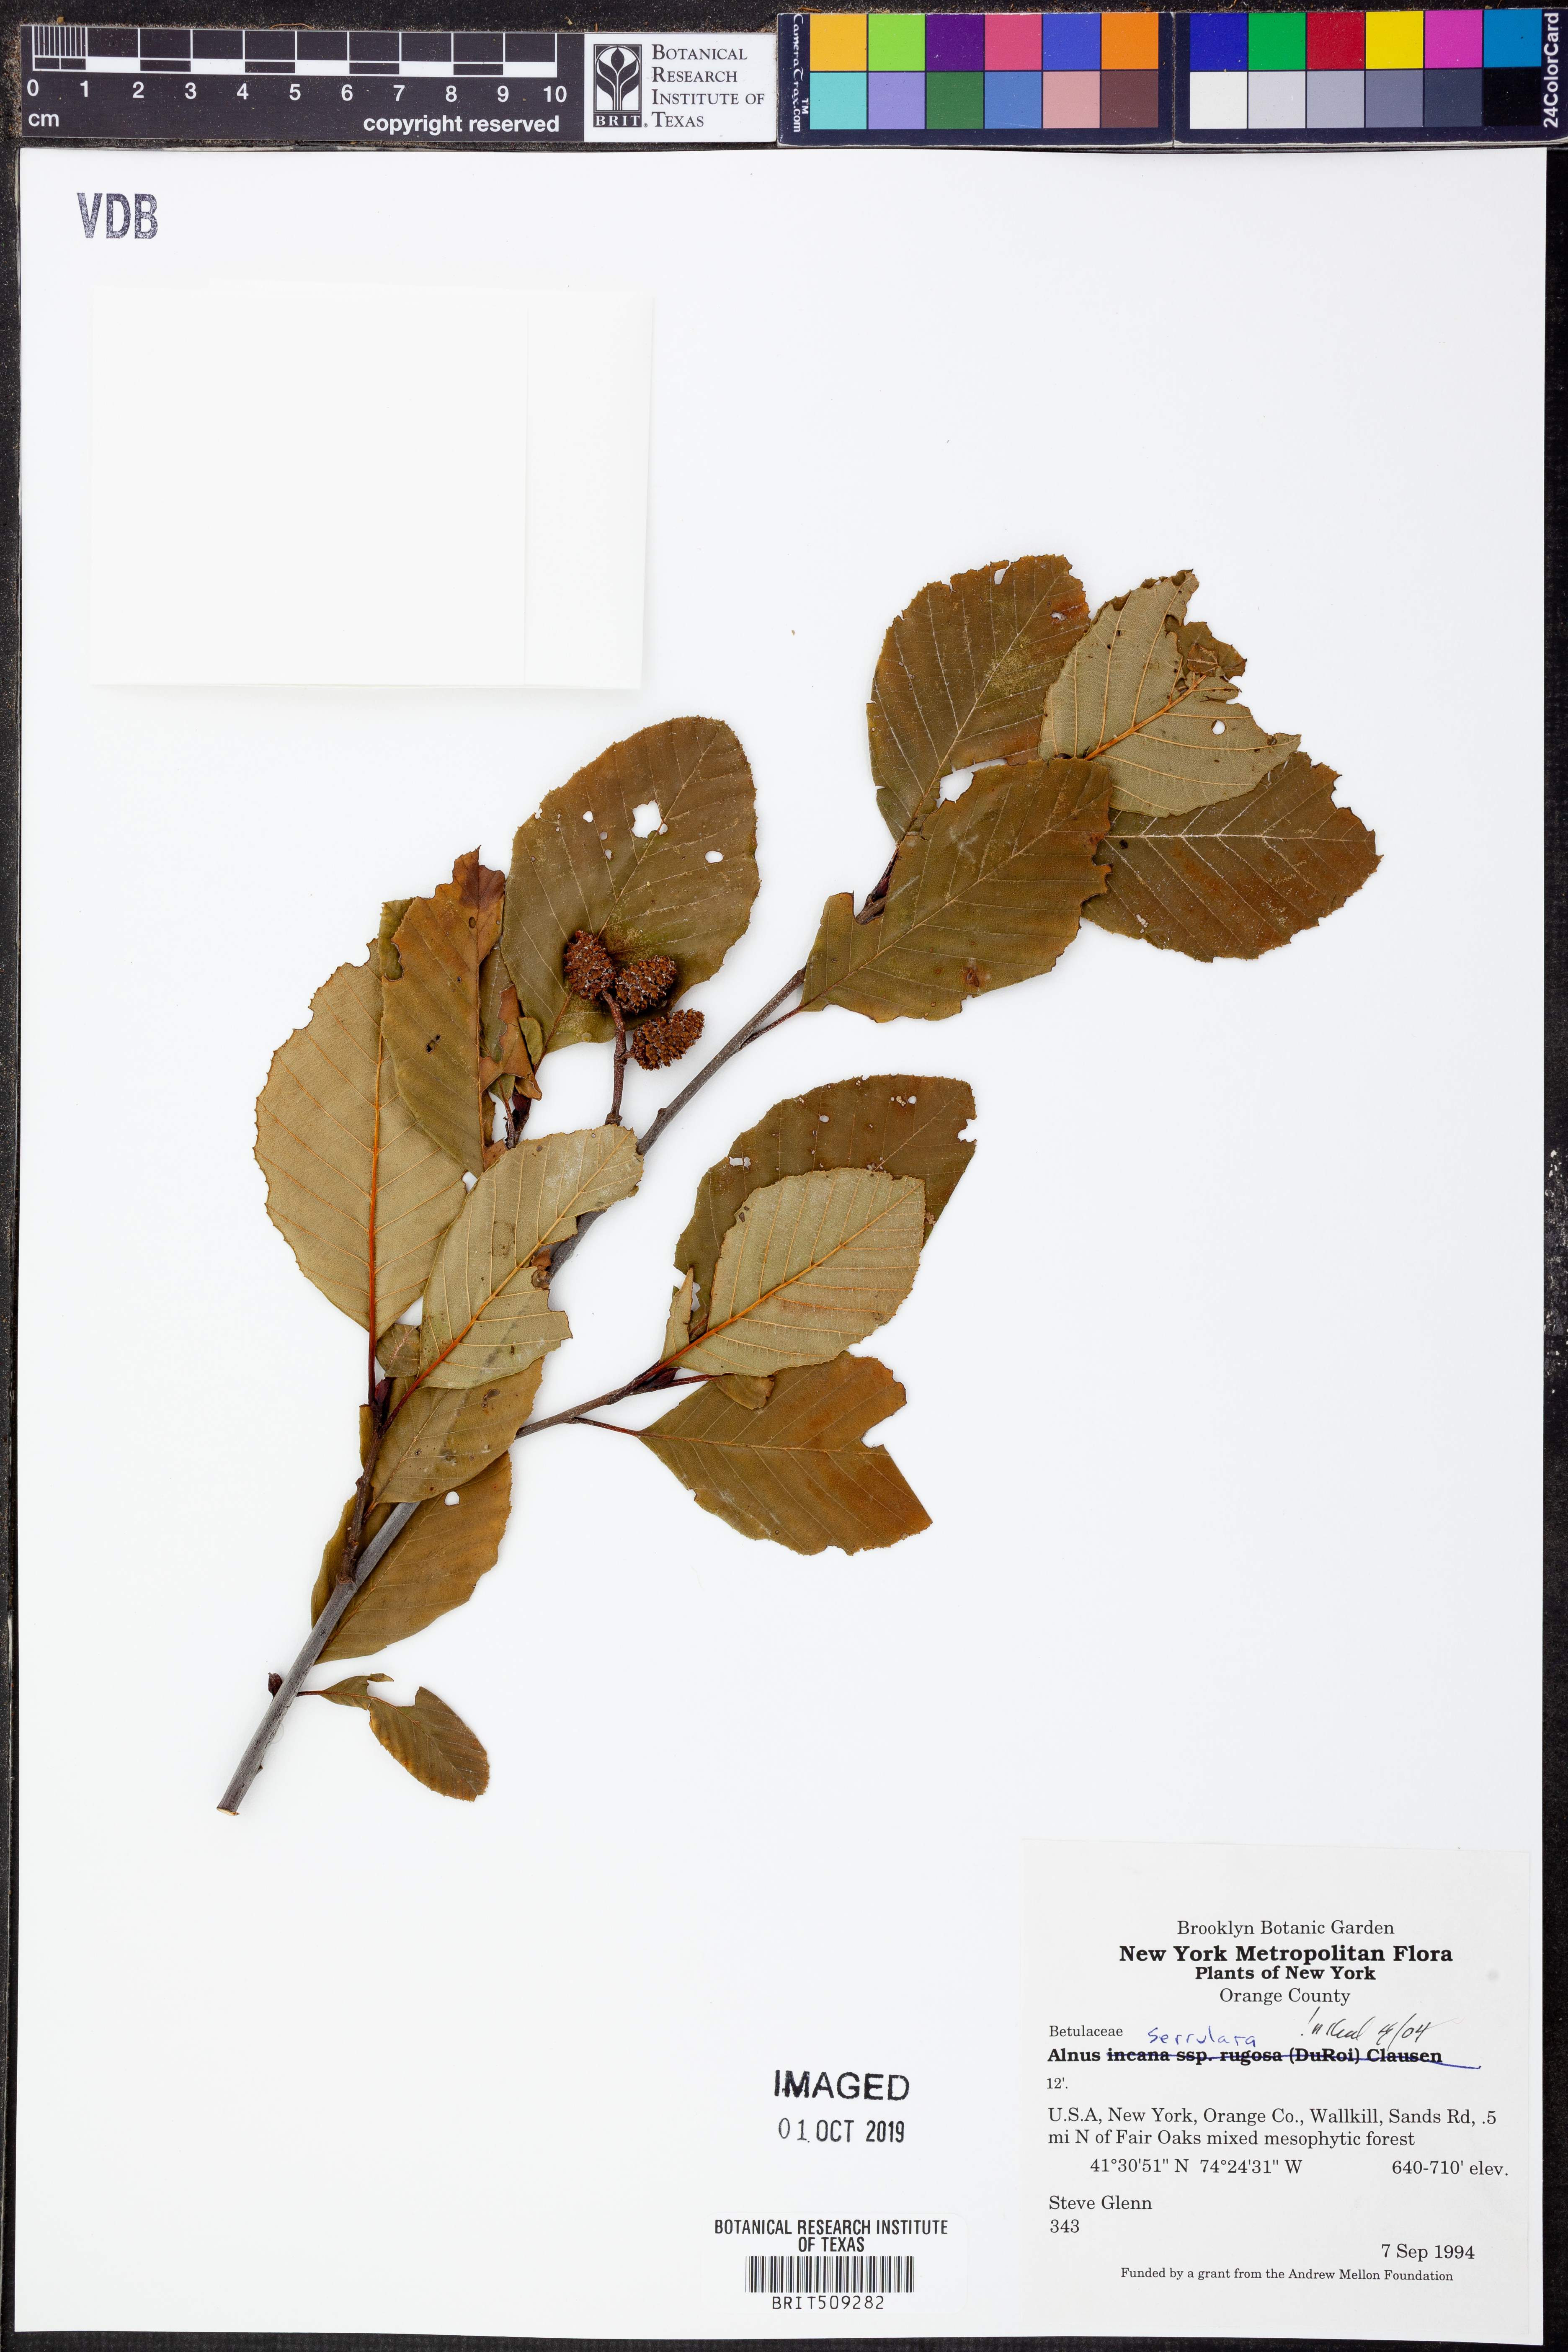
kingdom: Plantae
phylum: Tracheophyta
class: Magnoliopsida
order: Fagales
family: Betulaceae
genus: Alnus
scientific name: Alnus serrulata
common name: Hazel alder
